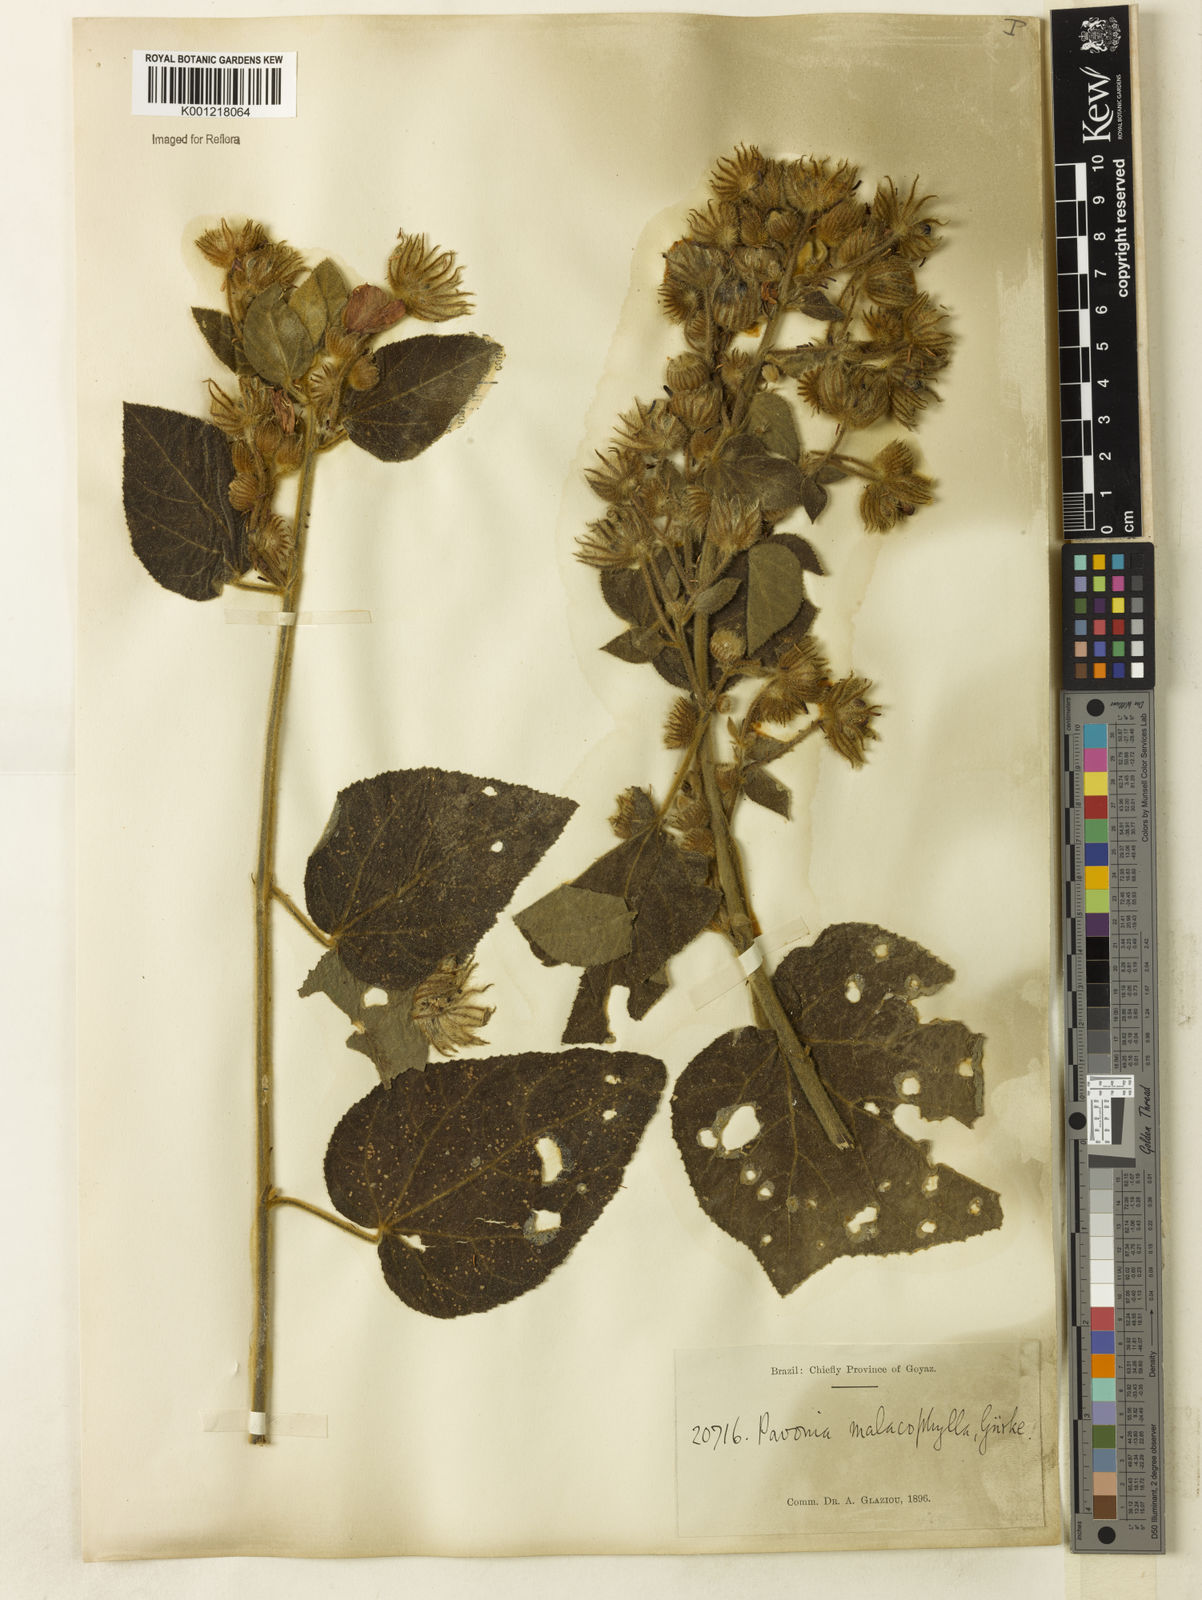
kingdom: Plantae
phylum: Tracheophyta
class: Magnoliopsida
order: Malvales
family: Malvaceae
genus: Pavonia
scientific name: Pavonia malacophylla
